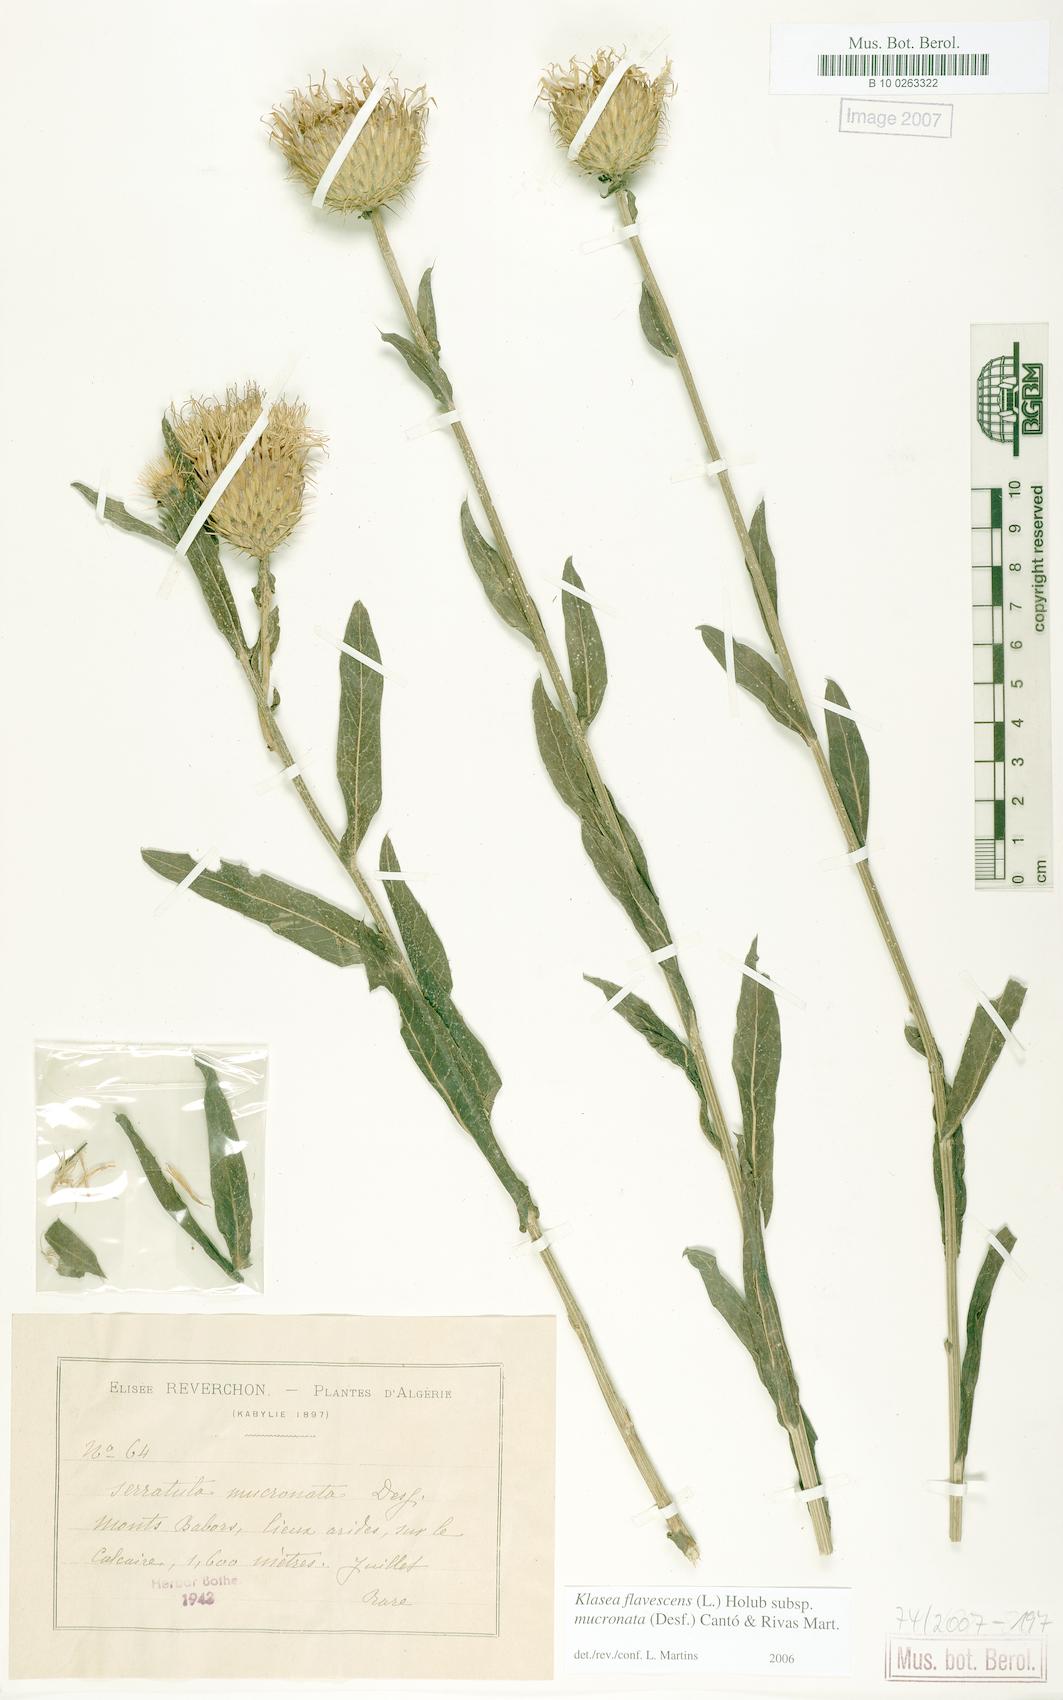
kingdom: Plantae
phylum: Tracheophyta
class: Magnoliopsida
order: Asterales
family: Asteraceae
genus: Klasea
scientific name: Klasea flavescens
